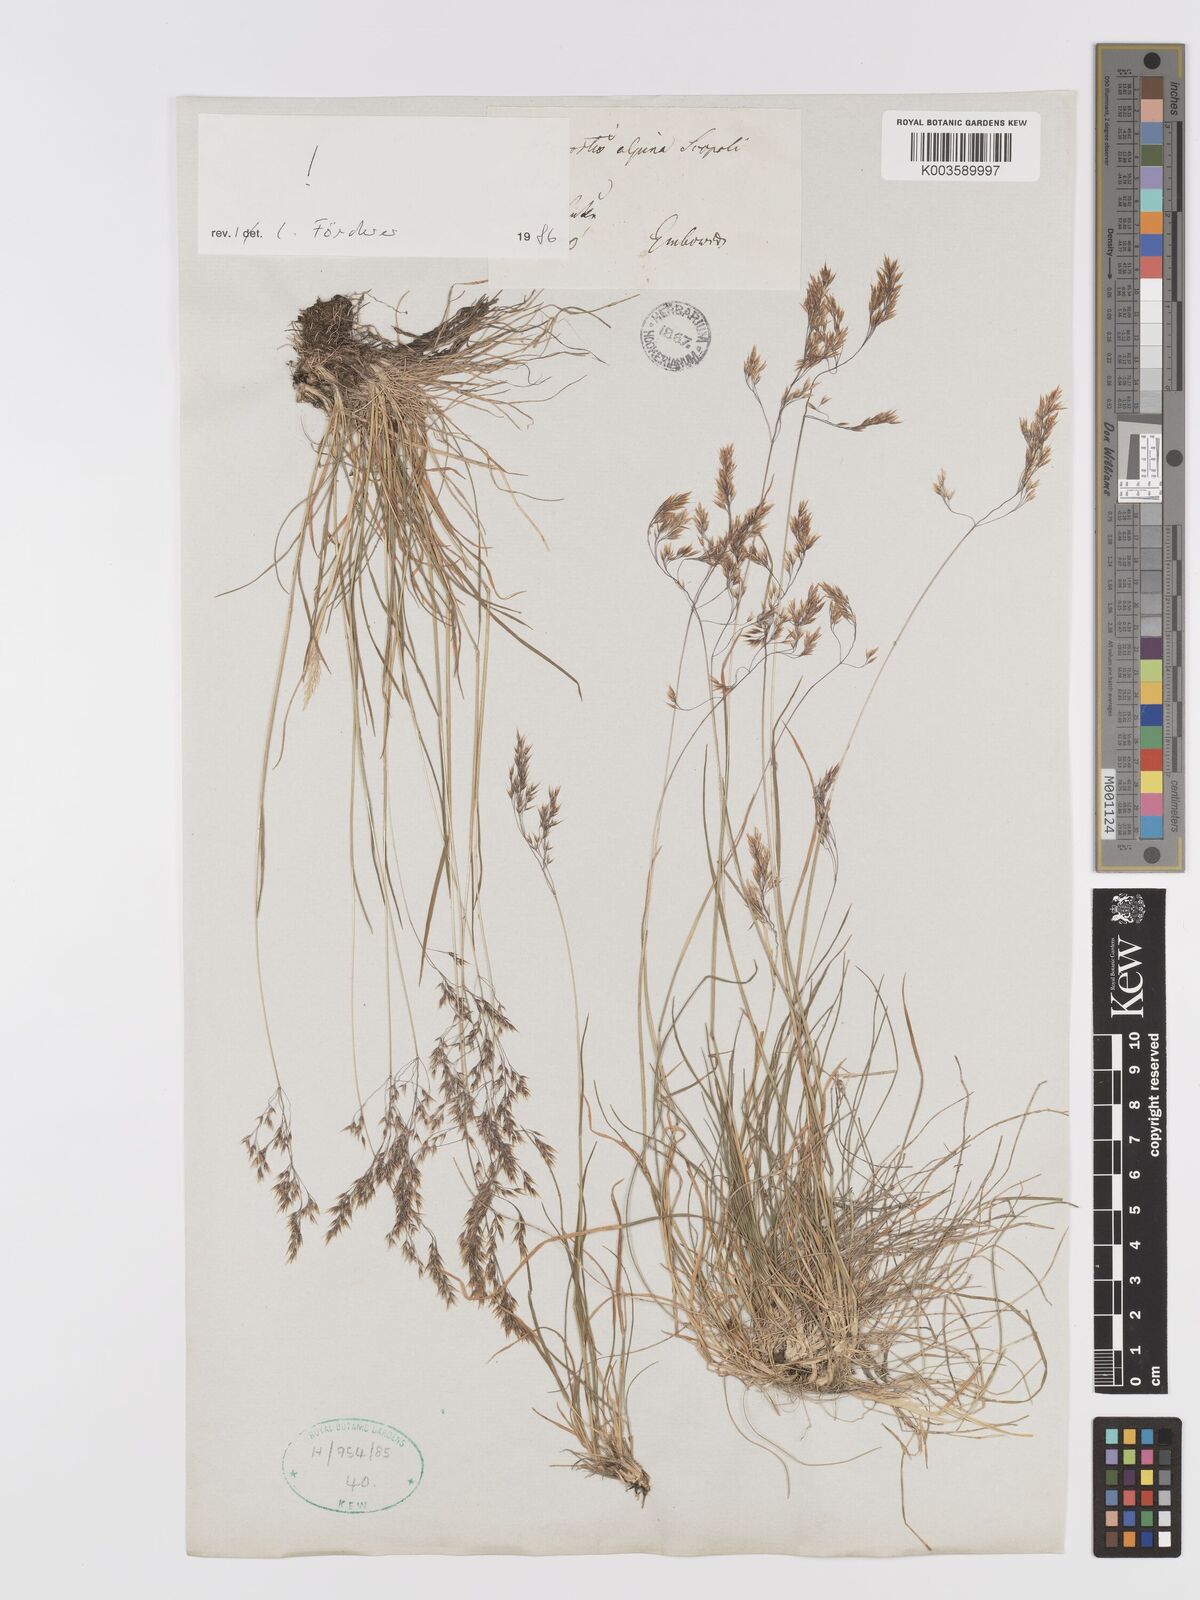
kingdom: Plantae
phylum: Tracheophyta
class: Liliopsida
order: Poales
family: Poaceae
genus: Alpagrostis
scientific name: Alpagrostis alpina
